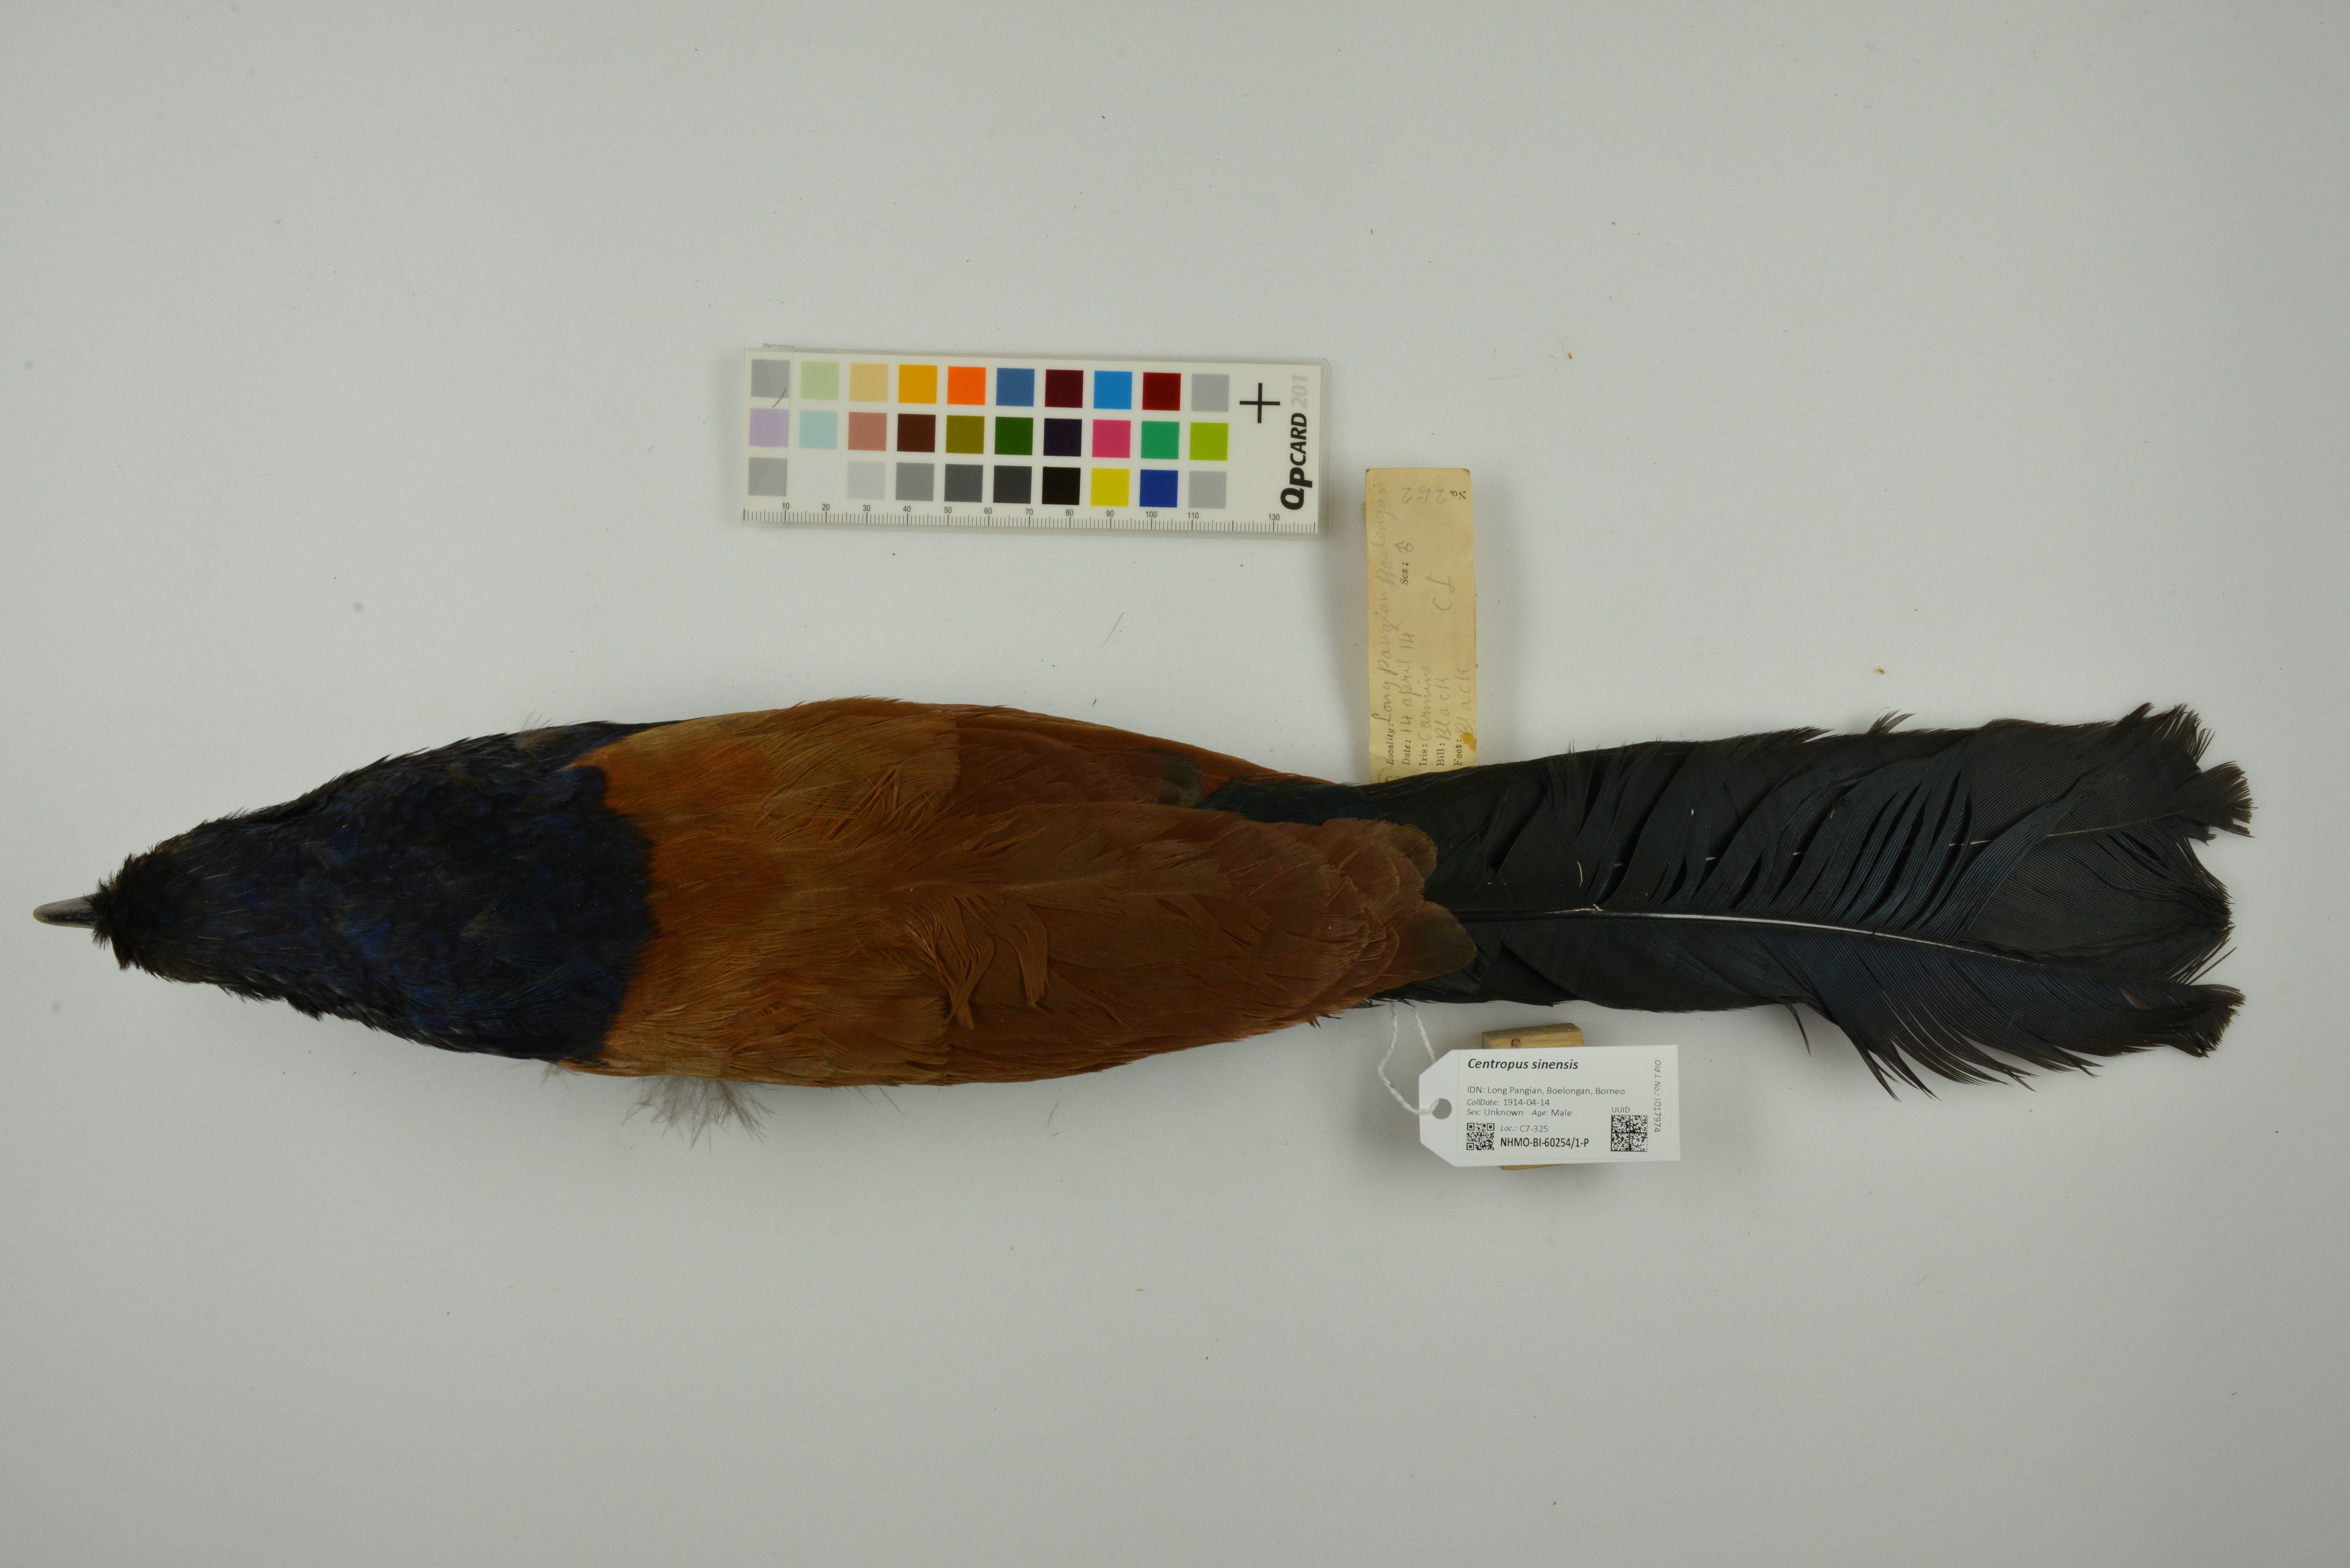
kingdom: Animalia
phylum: Chordata
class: Aves
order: Cuculiformes
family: Cuculidae
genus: Centropus
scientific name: Centropus sinensis
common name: Greater coucal
